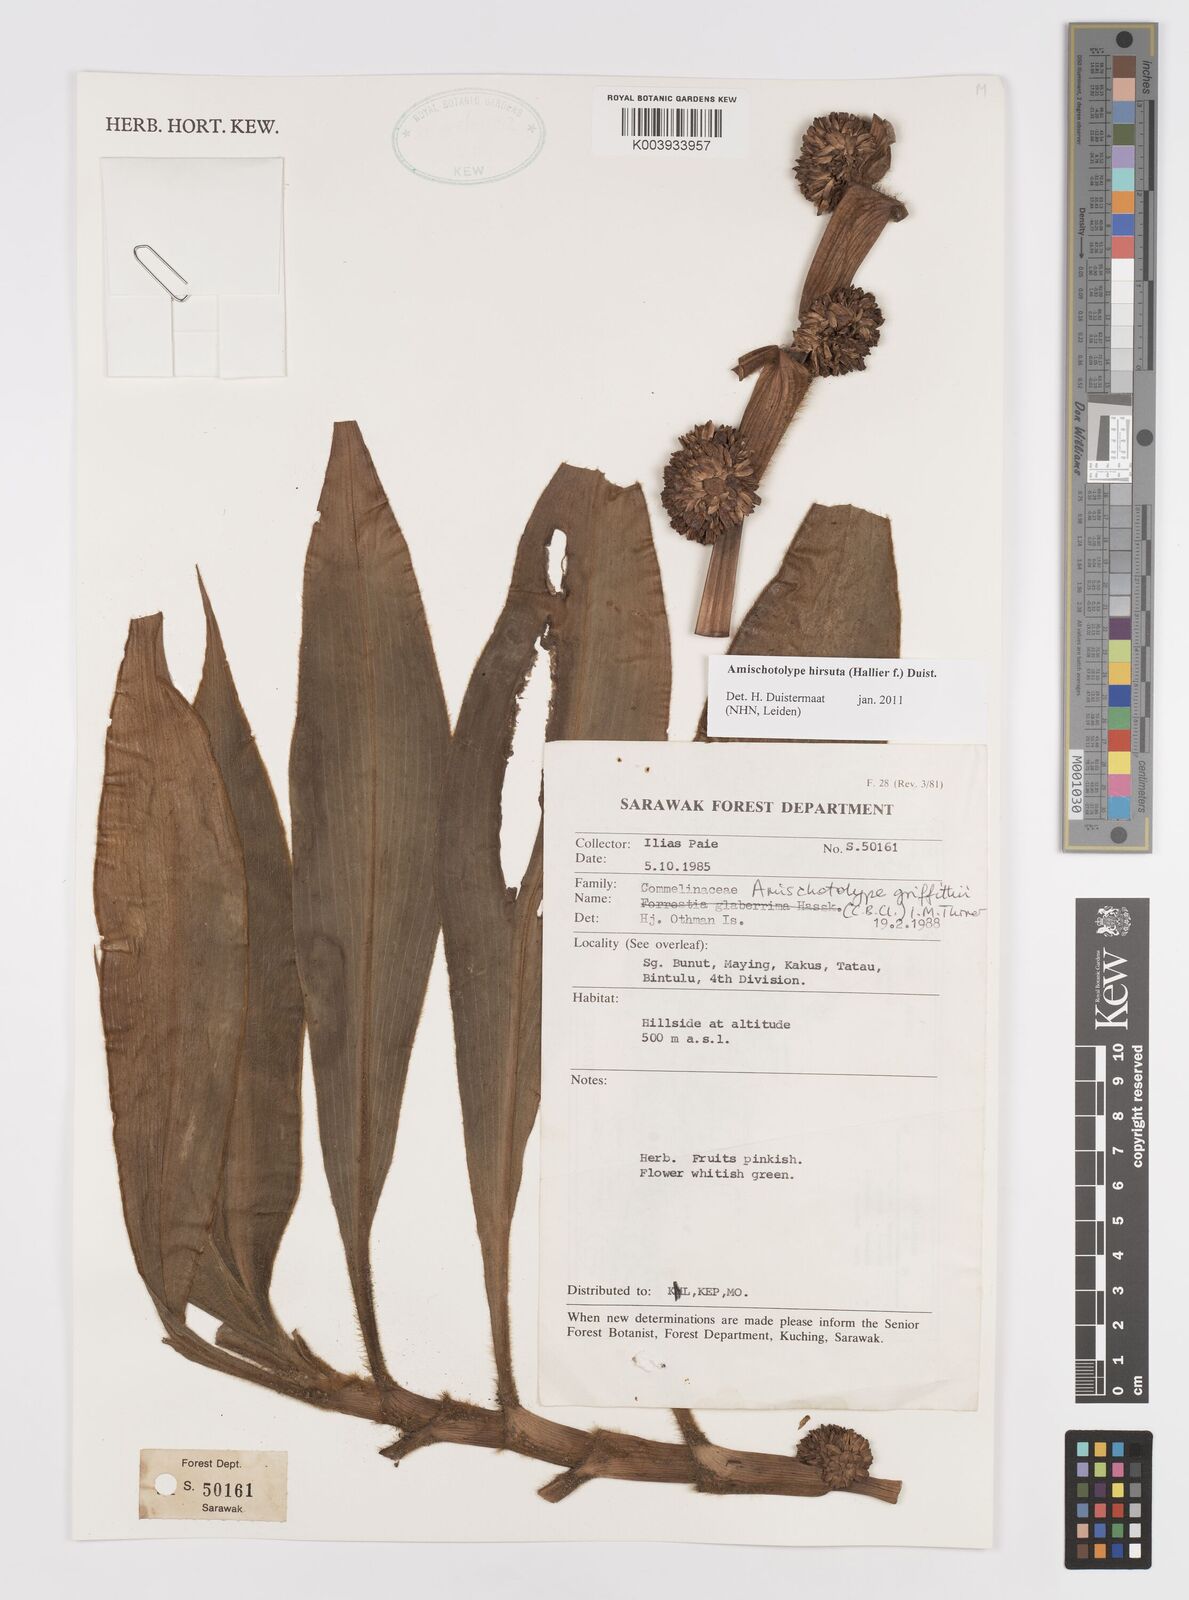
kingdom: Plantae
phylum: Tracheophyta
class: Liliopsida
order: Commelinales
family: Commelinaceae
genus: Amischotolype
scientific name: Amischotolype hirsuta
